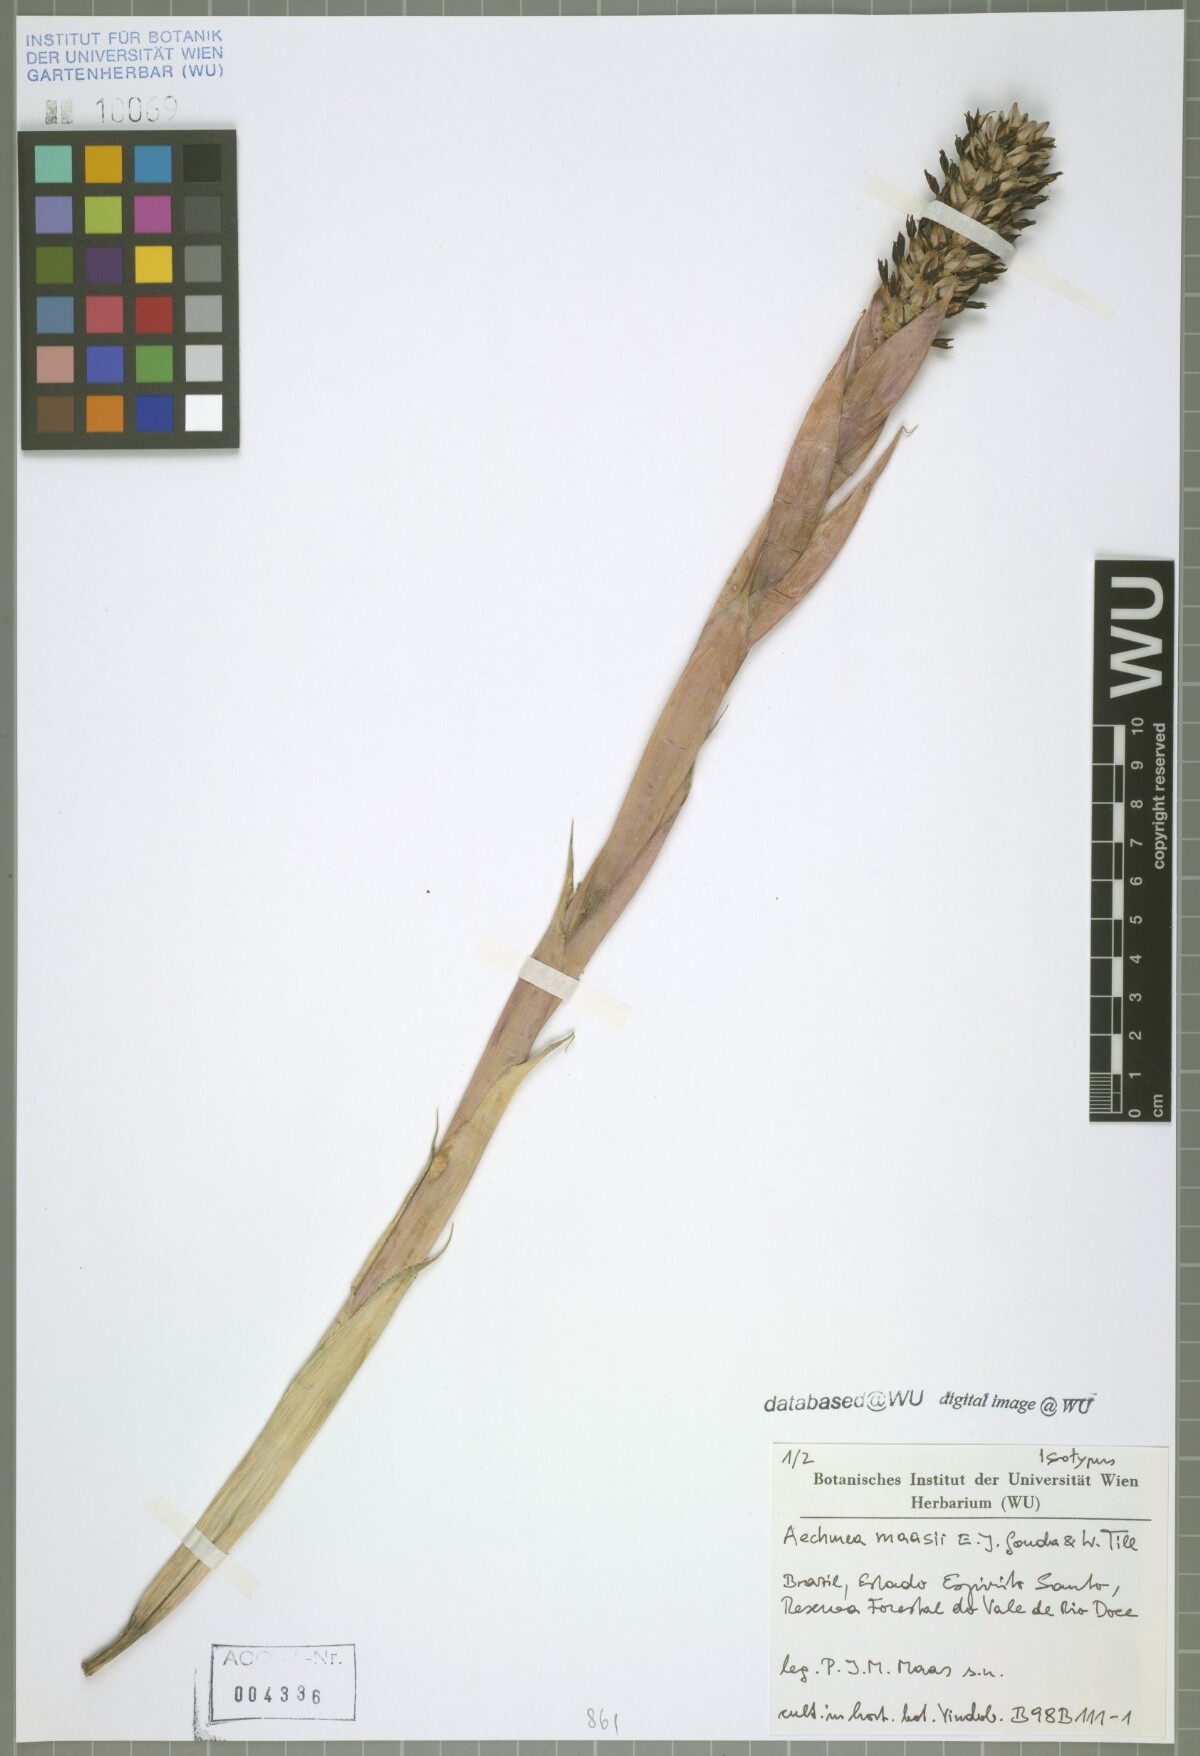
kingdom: Plantae
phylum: Tracheophyta
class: Liliopsida
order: Poales
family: Bromeliaceae
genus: Aechmea
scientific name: Aechmea maasii
